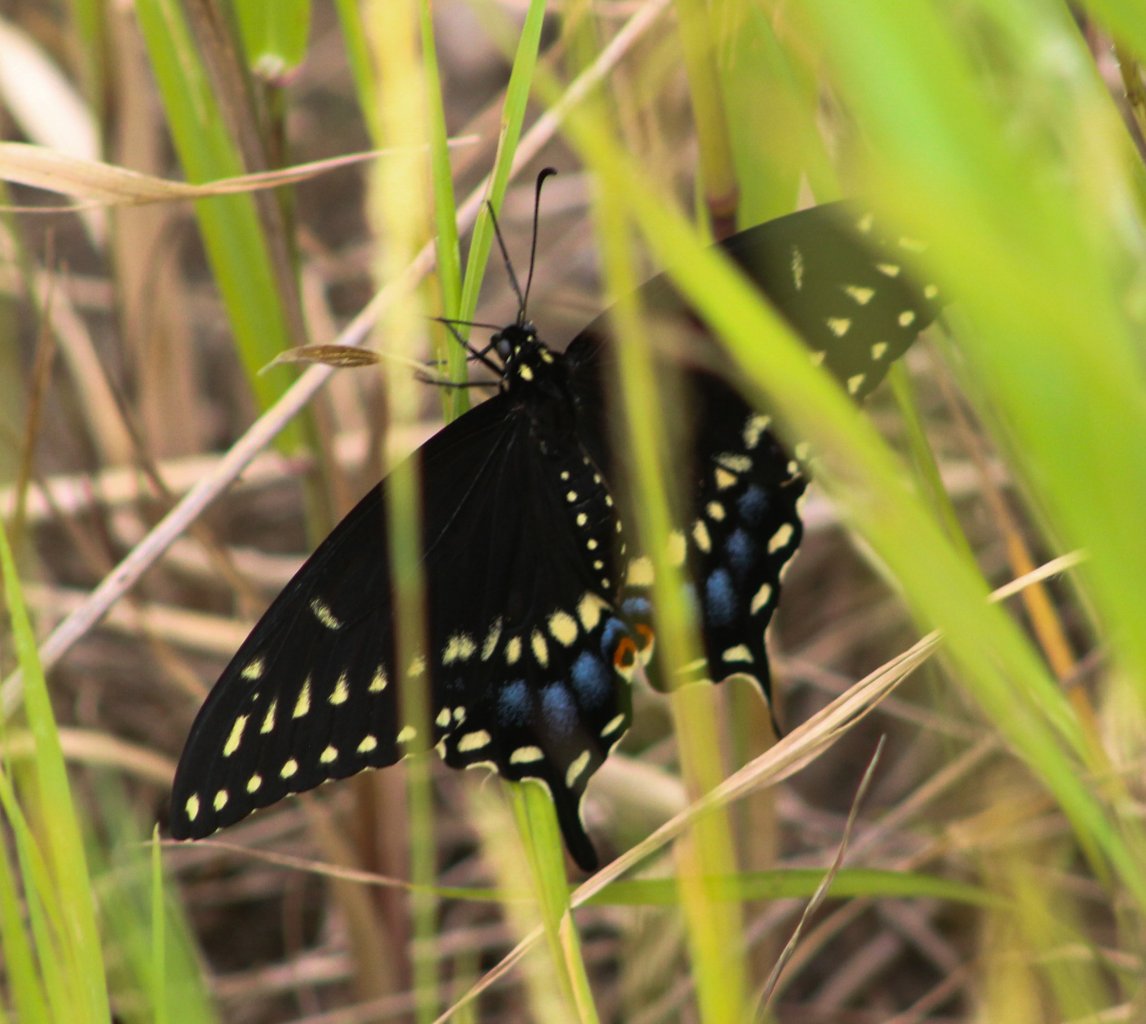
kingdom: Animalia
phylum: Arthropoda
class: Insecta
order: Lepidoptera
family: Papilionidae
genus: Papilio
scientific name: Papilio polyxenes
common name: Black Swallowtail
